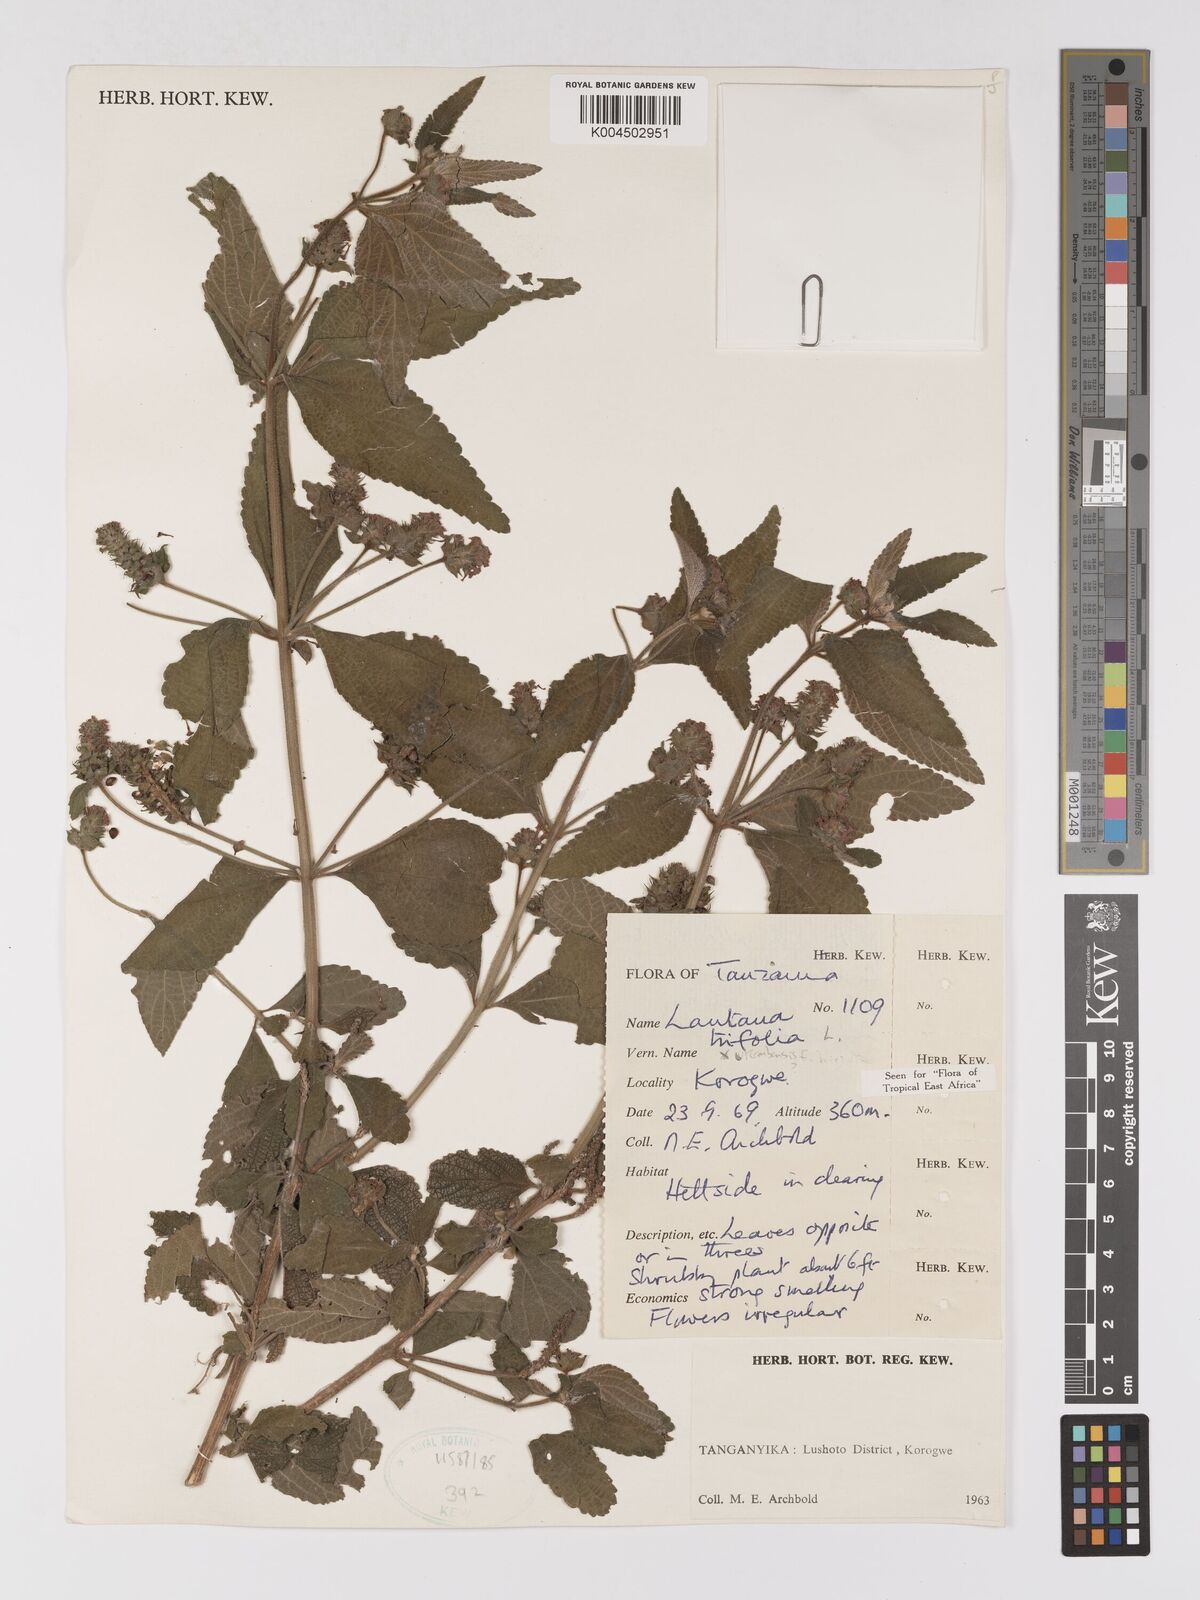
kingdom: Plantae
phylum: Tracheophyta
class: Magnoliopsida
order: Lamiales
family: Verbenaceae
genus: Lantana
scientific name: Lantana trifolia
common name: Sweet-sage
